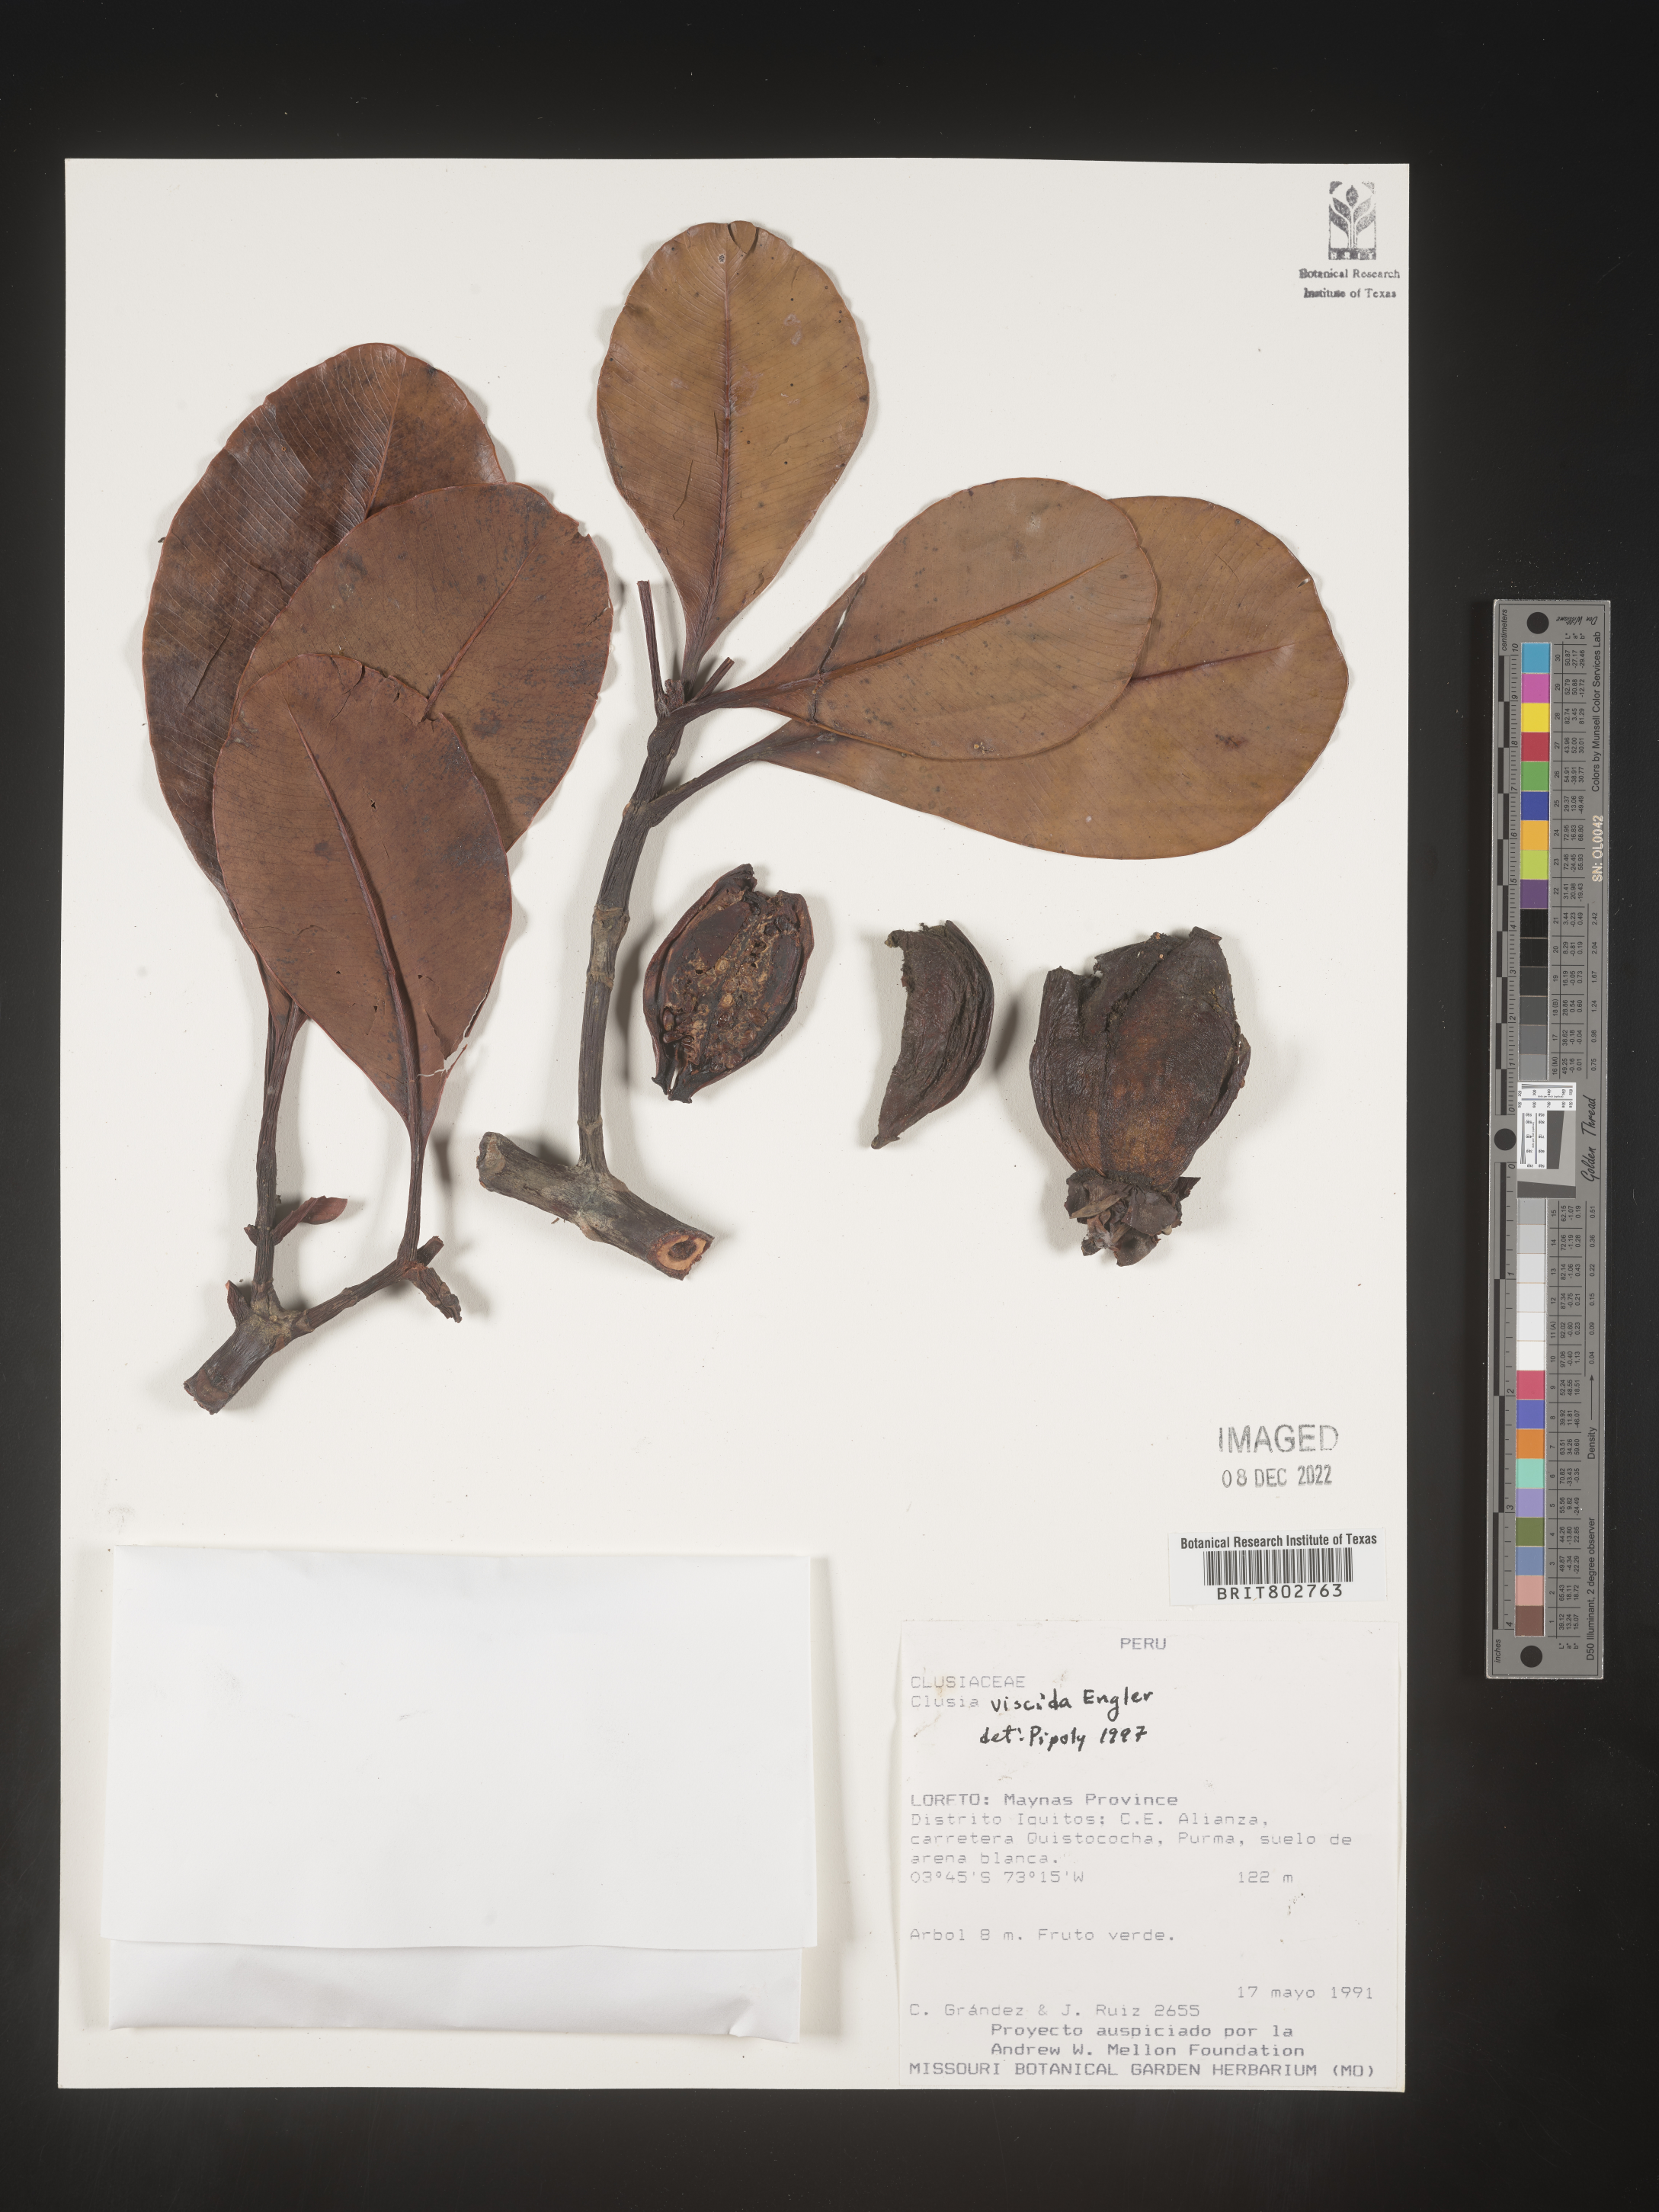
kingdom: Plantae
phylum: Tracheophyta
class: Magnoliopsida
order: Malpighiales
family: Clusiaceae
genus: Clusia
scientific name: Clusia viscida
